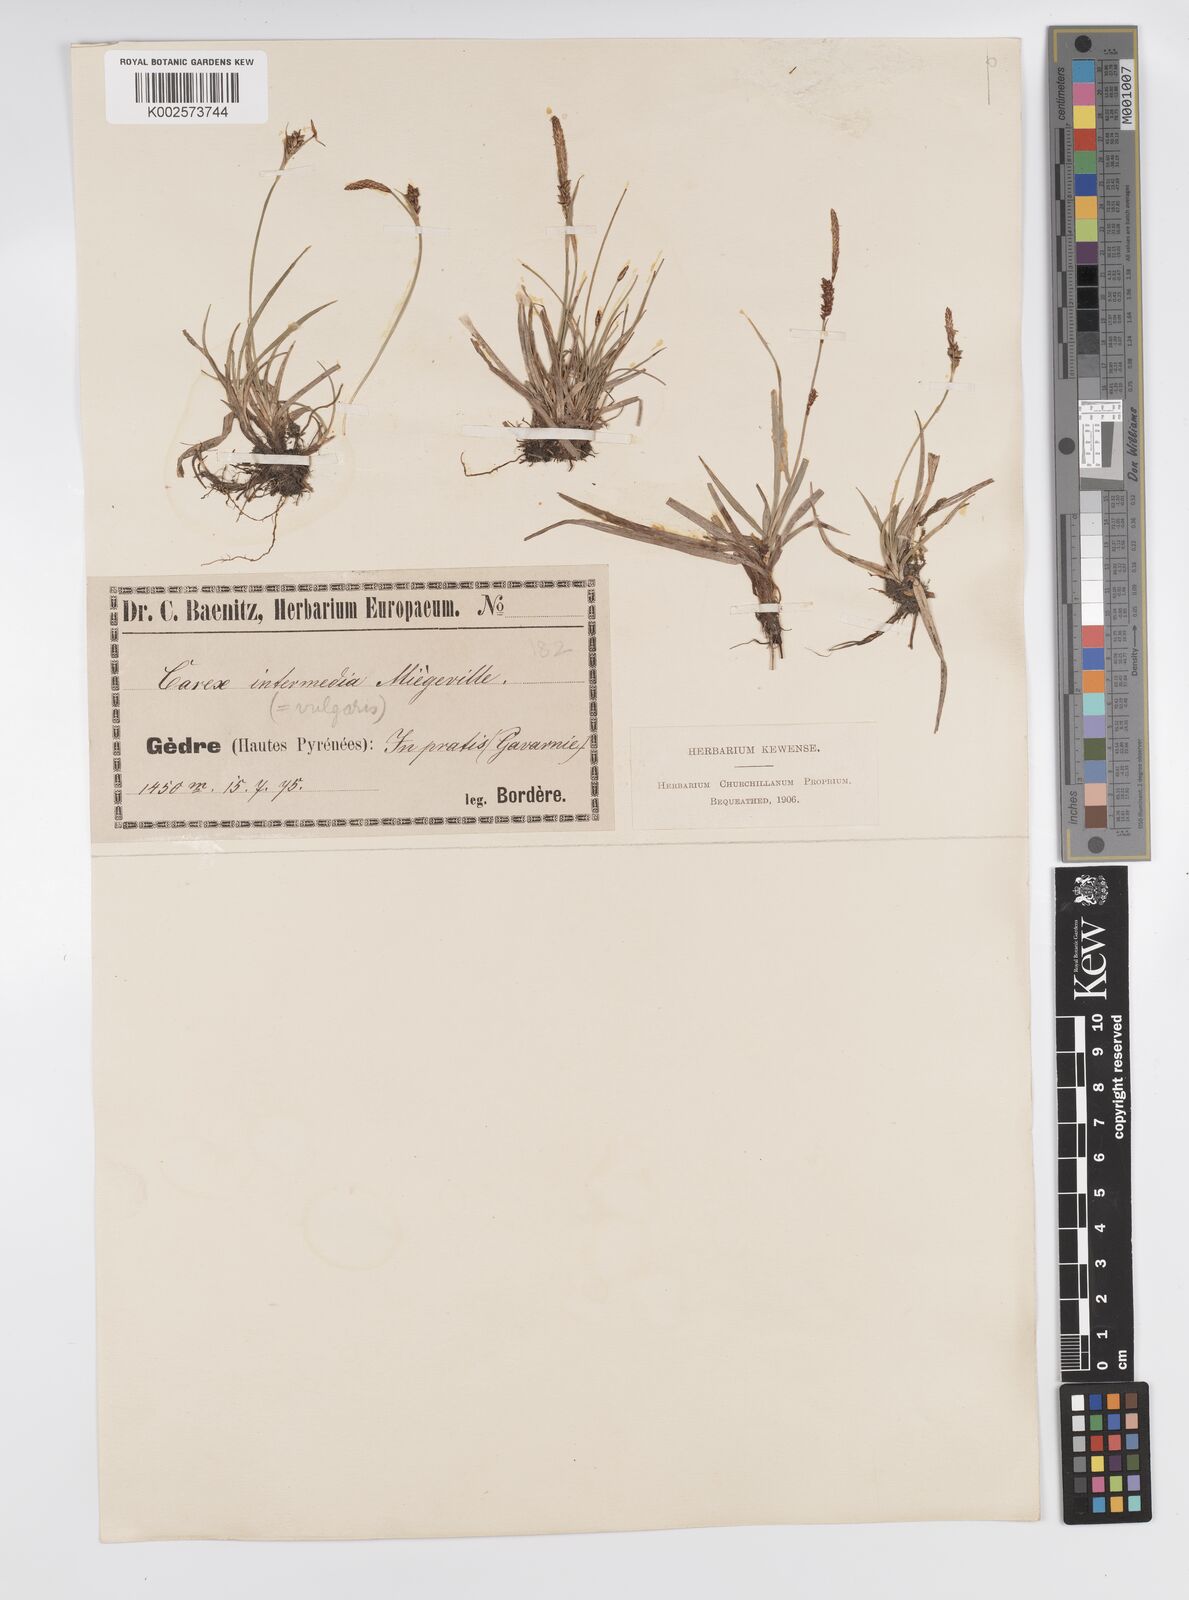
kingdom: Plantae
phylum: Tracheophyta
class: Liliopsida
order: Poales
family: Cyperaceae
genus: Carex
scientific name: Carex panicea
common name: Carnation sedge
